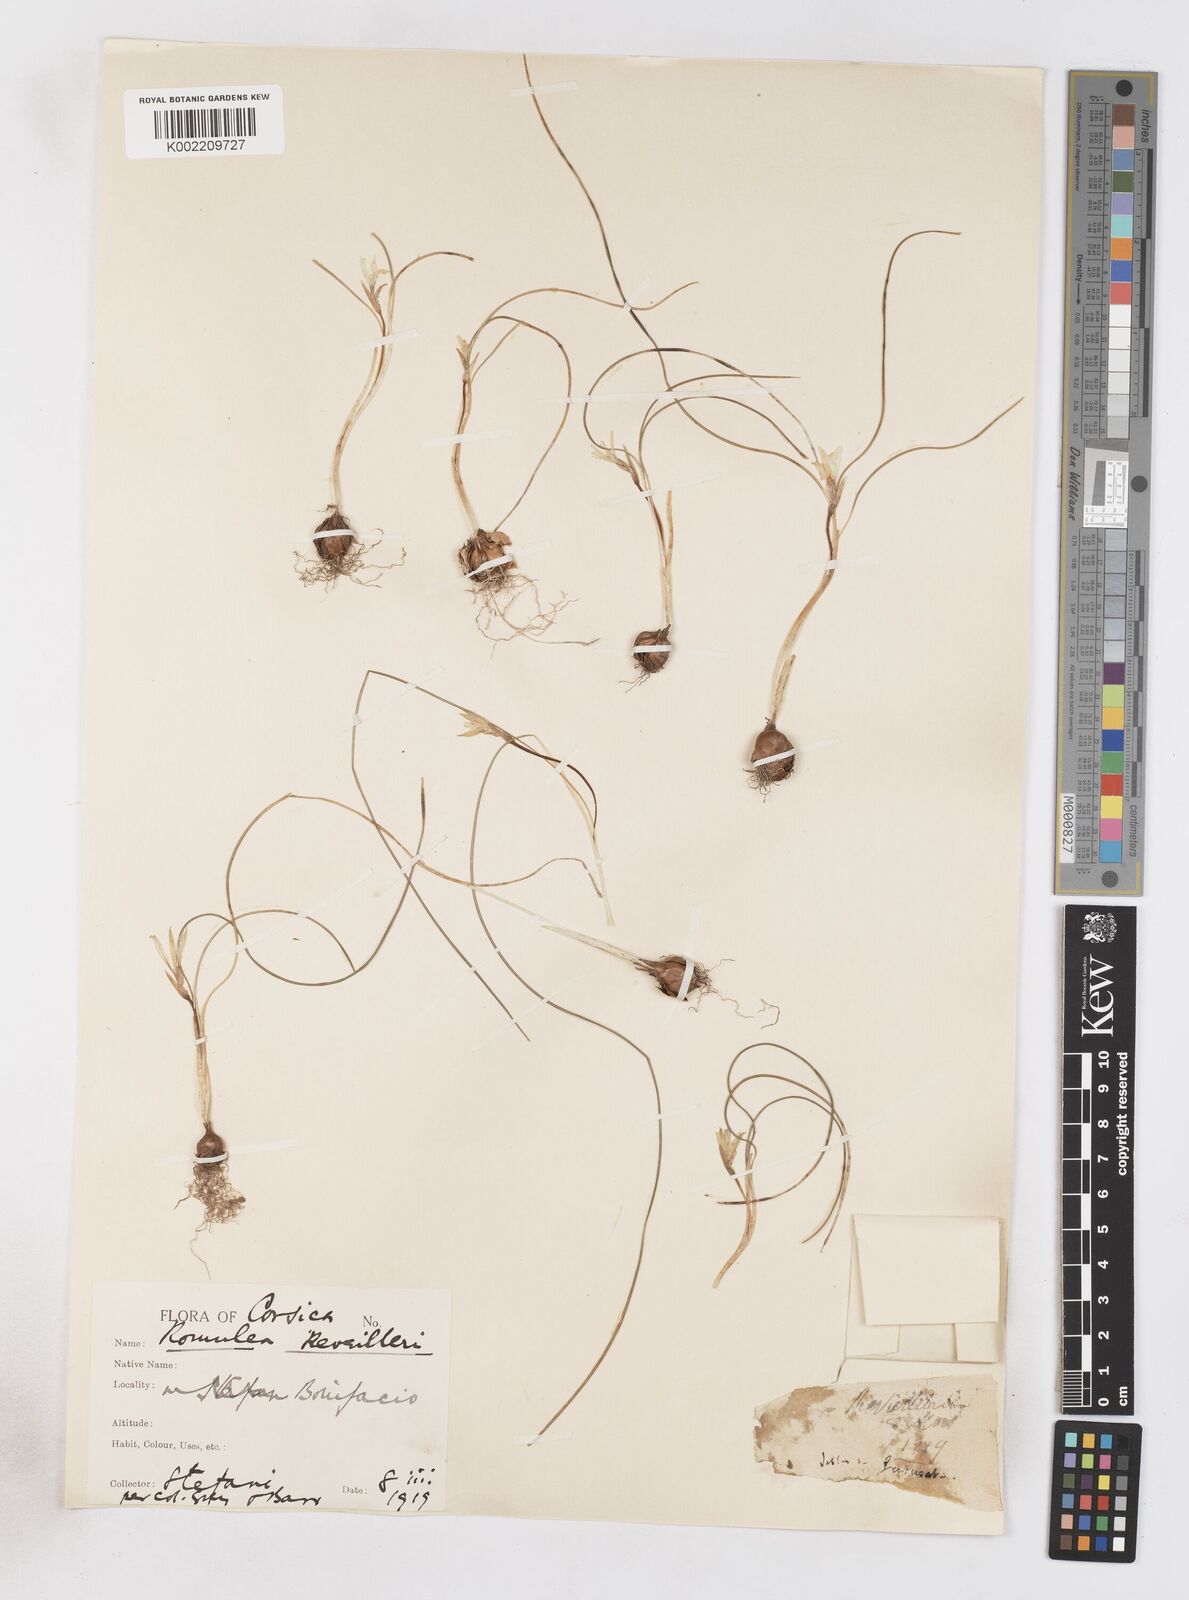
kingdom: Plantae
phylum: Tracheophyta
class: Liliopsida
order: Asparagales
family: Iridaceae
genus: Romulea
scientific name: Romulea columnae
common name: Sand-crocus
